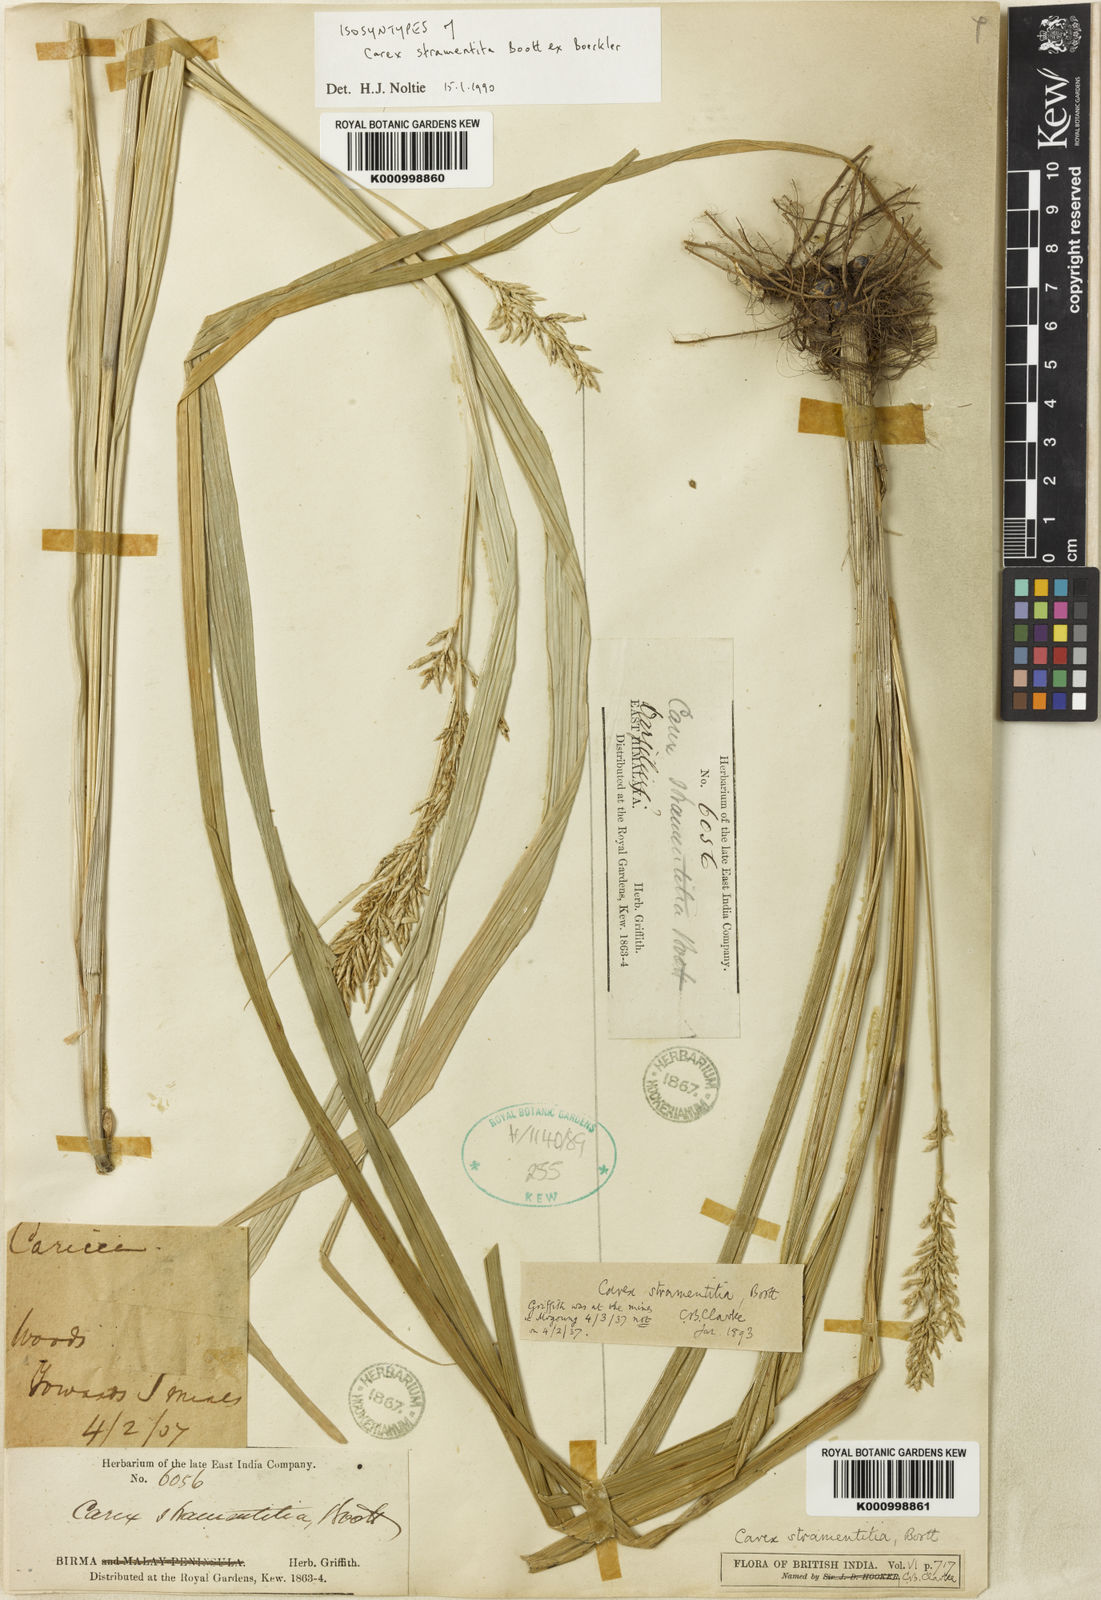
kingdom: Plantae
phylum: Tracheophyta
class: Liliopsida
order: Poales
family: Cyperaceae
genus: Carex
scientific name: Carex stramentitia
